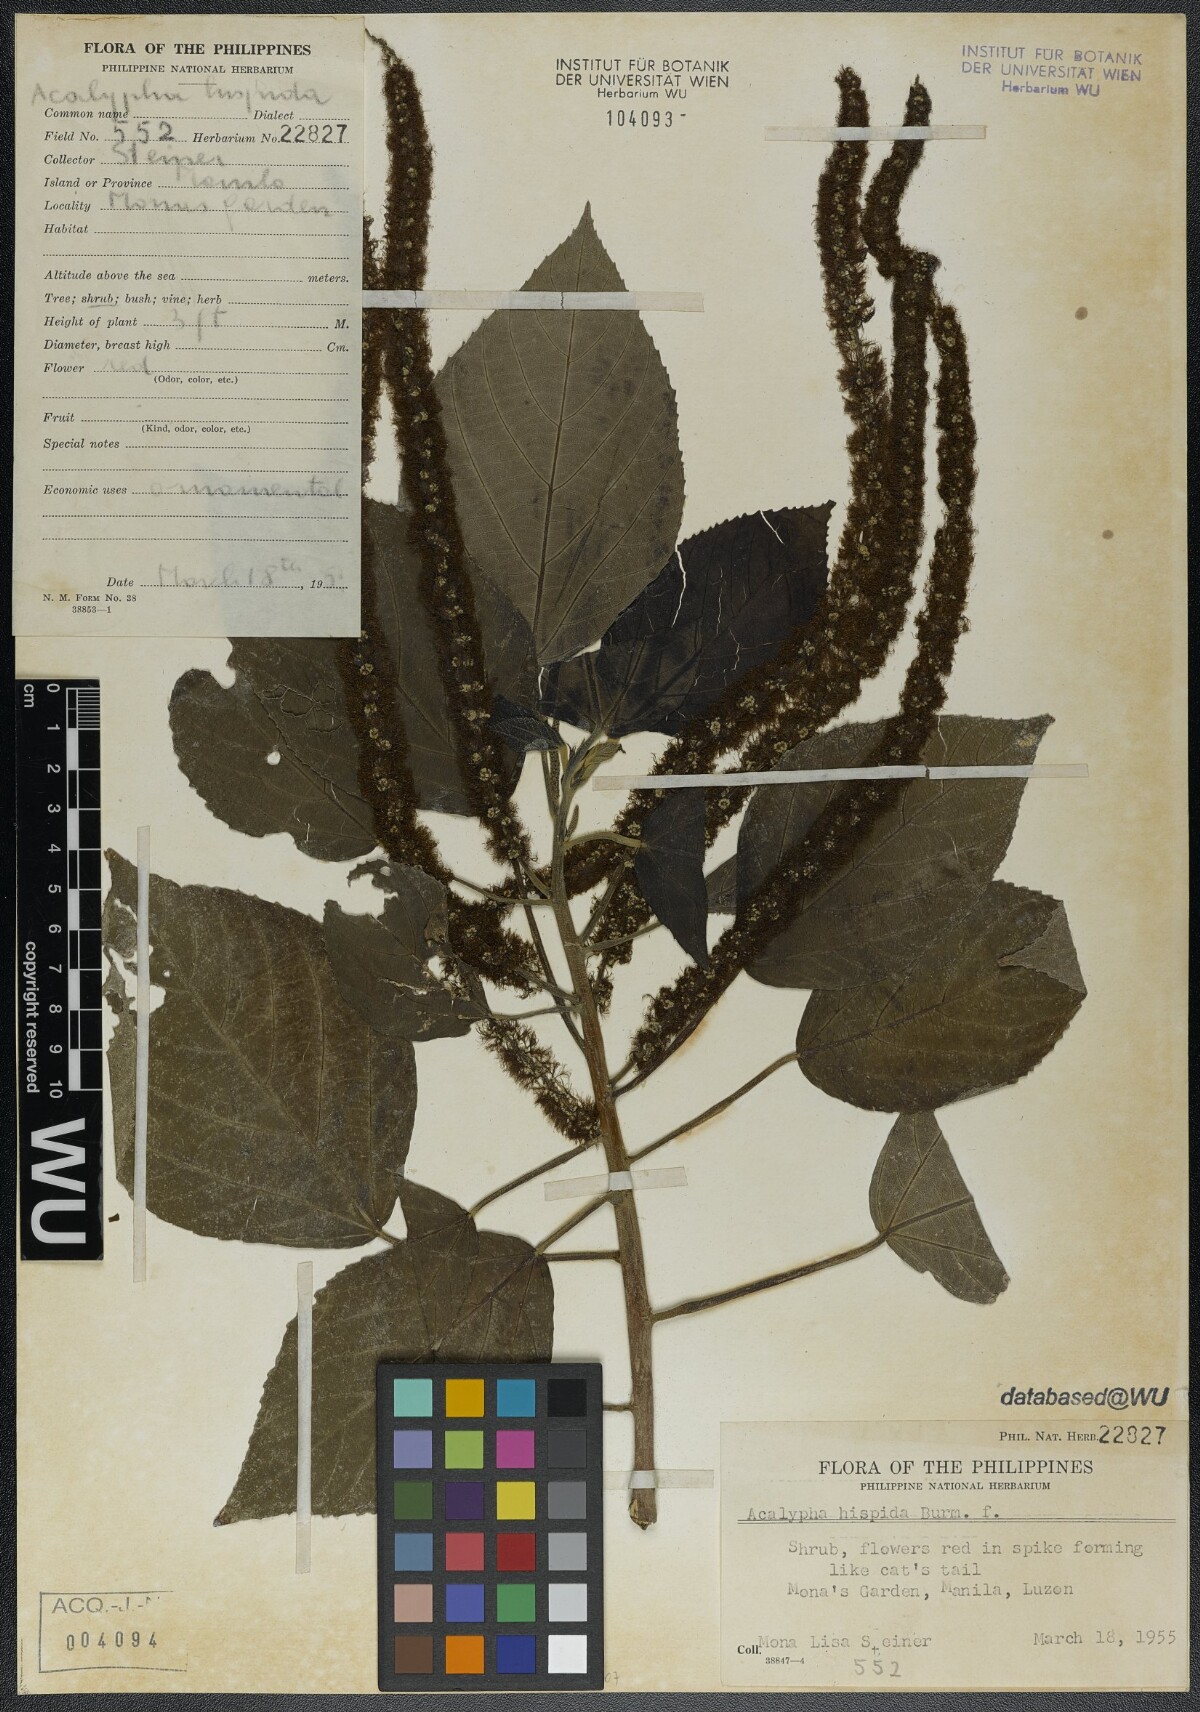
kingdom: Plantae
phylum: Tracheophyta
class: Magnoliopsida
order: Malpighiales
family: Euphorbiaceae
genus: Acalypha
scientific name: Acalypha hispida
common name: Chenilleplant
